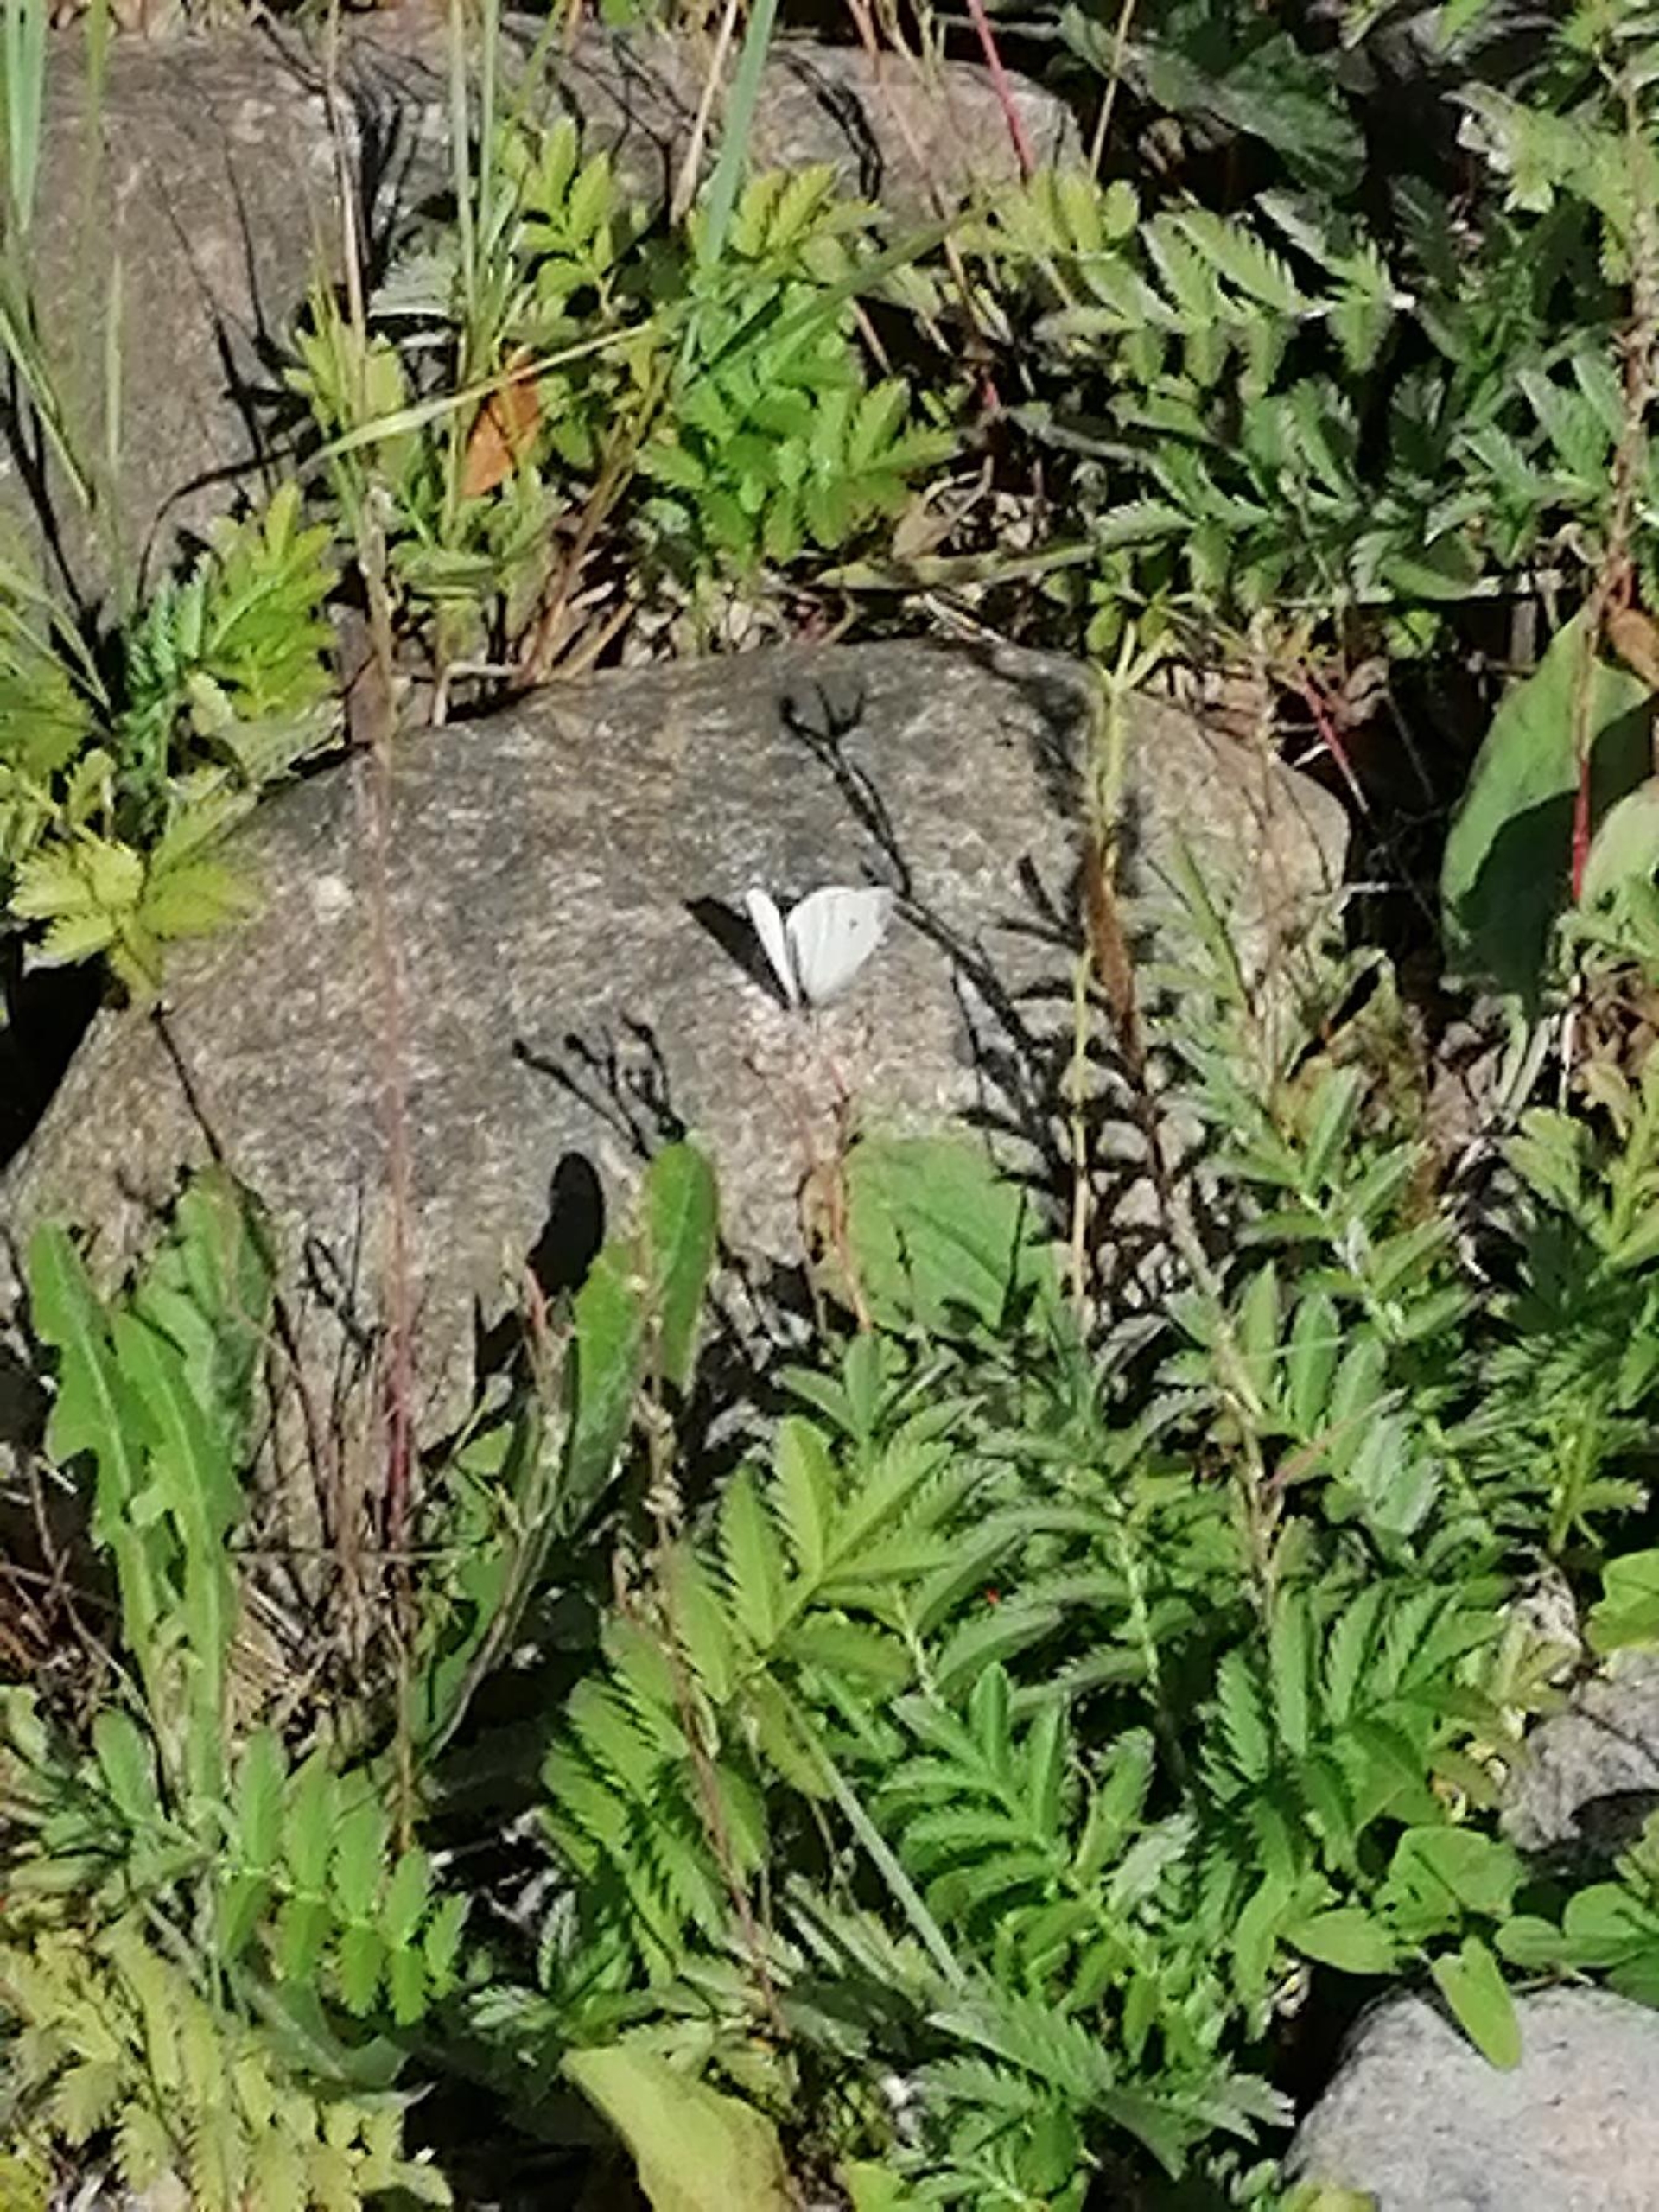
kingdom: Animalia
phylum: Arthropoda
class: Insecta
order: Lepidoptera
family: Pieridae
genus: Pieris
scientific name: Pieris rapae
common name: Lille kålsommerfugl
